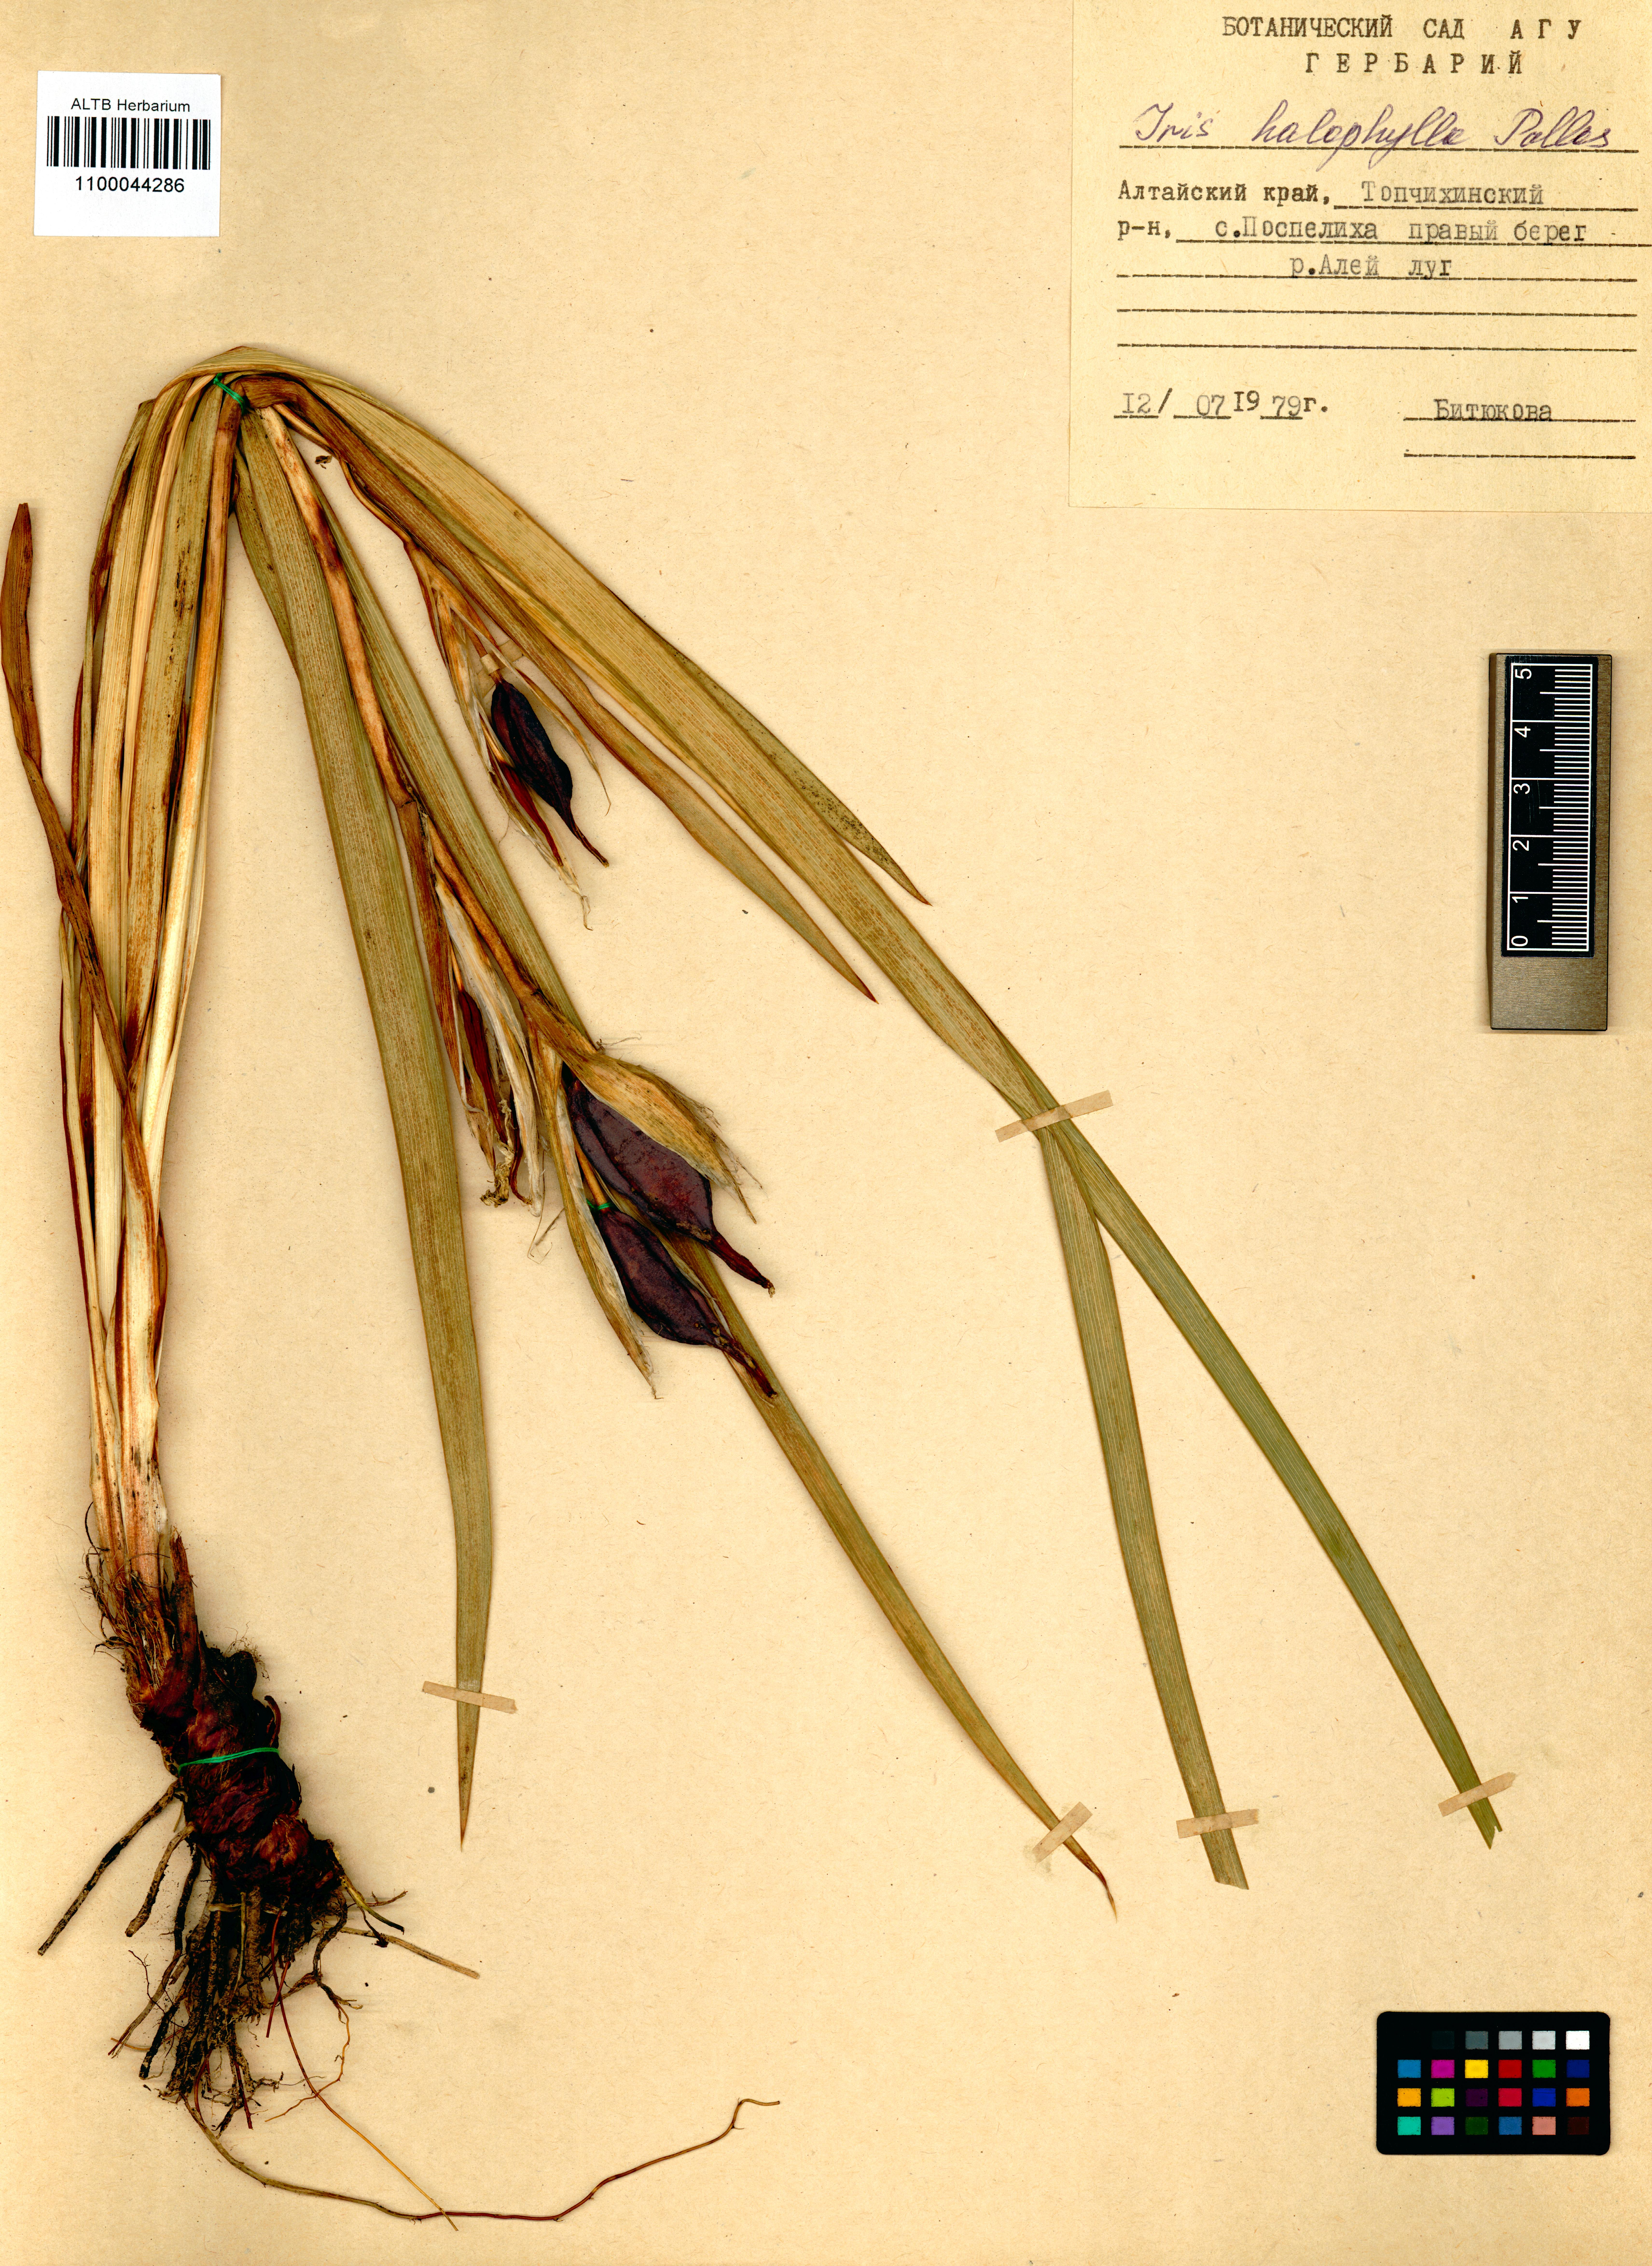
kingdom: Plantae
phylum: Tracheophyta
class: Liliopsida
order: Asparagales
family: Iridaceae
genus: Iris
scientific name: Iris halophila
